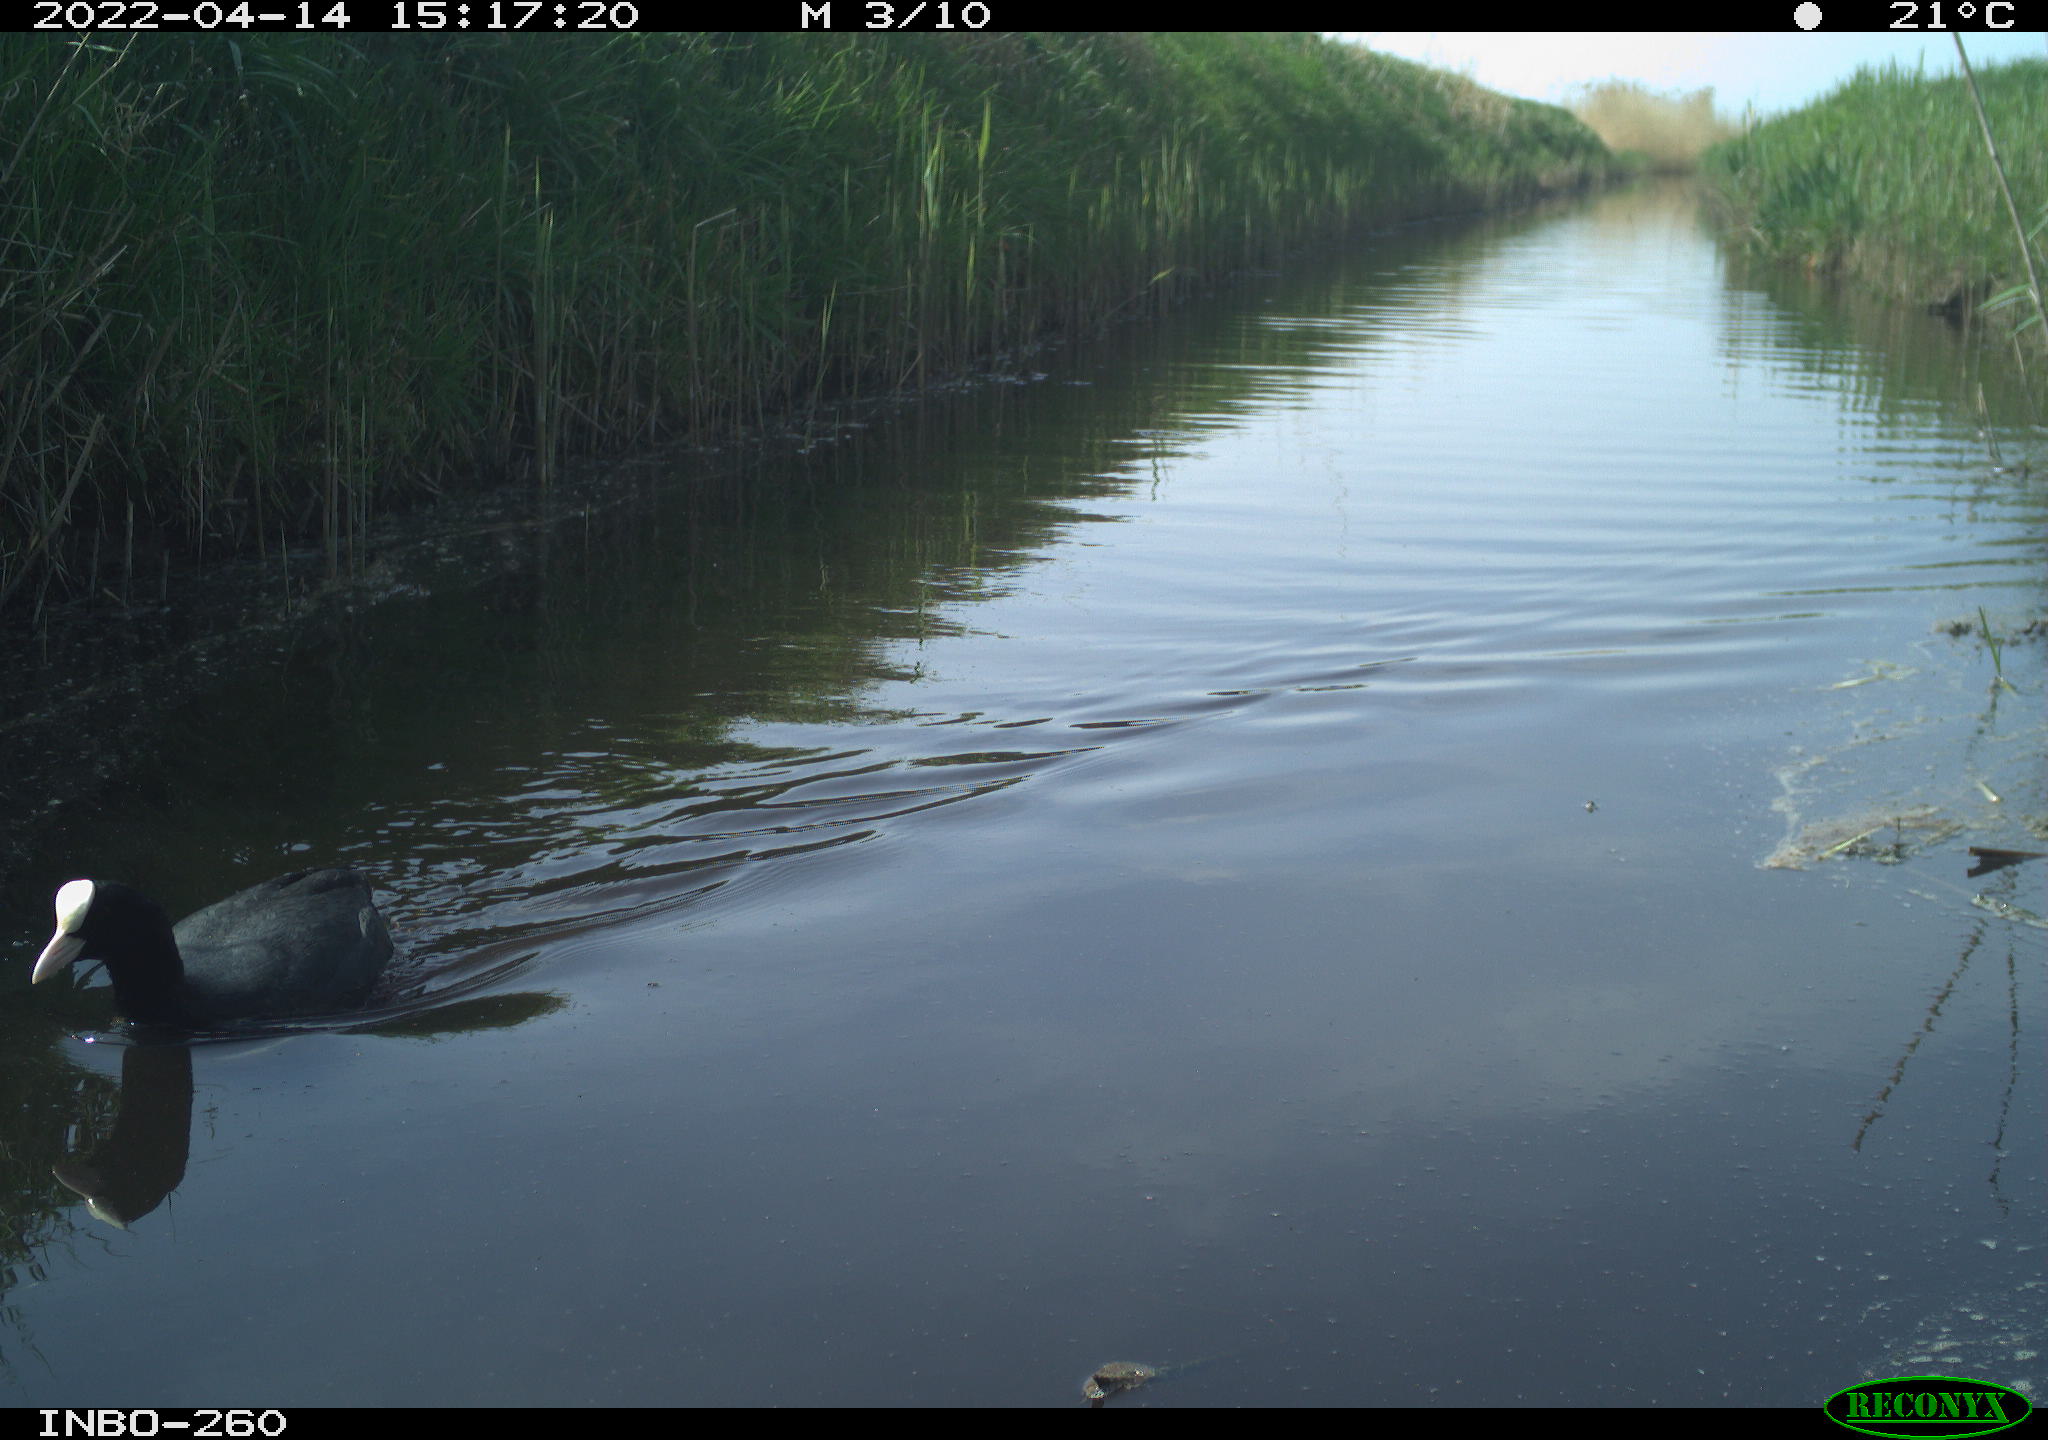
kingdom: Animalia
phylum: Chordata
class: Aves
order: Gruiformes
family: Rallidae
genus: Fulica
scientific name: Fulica atra
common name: Eurasian coot
